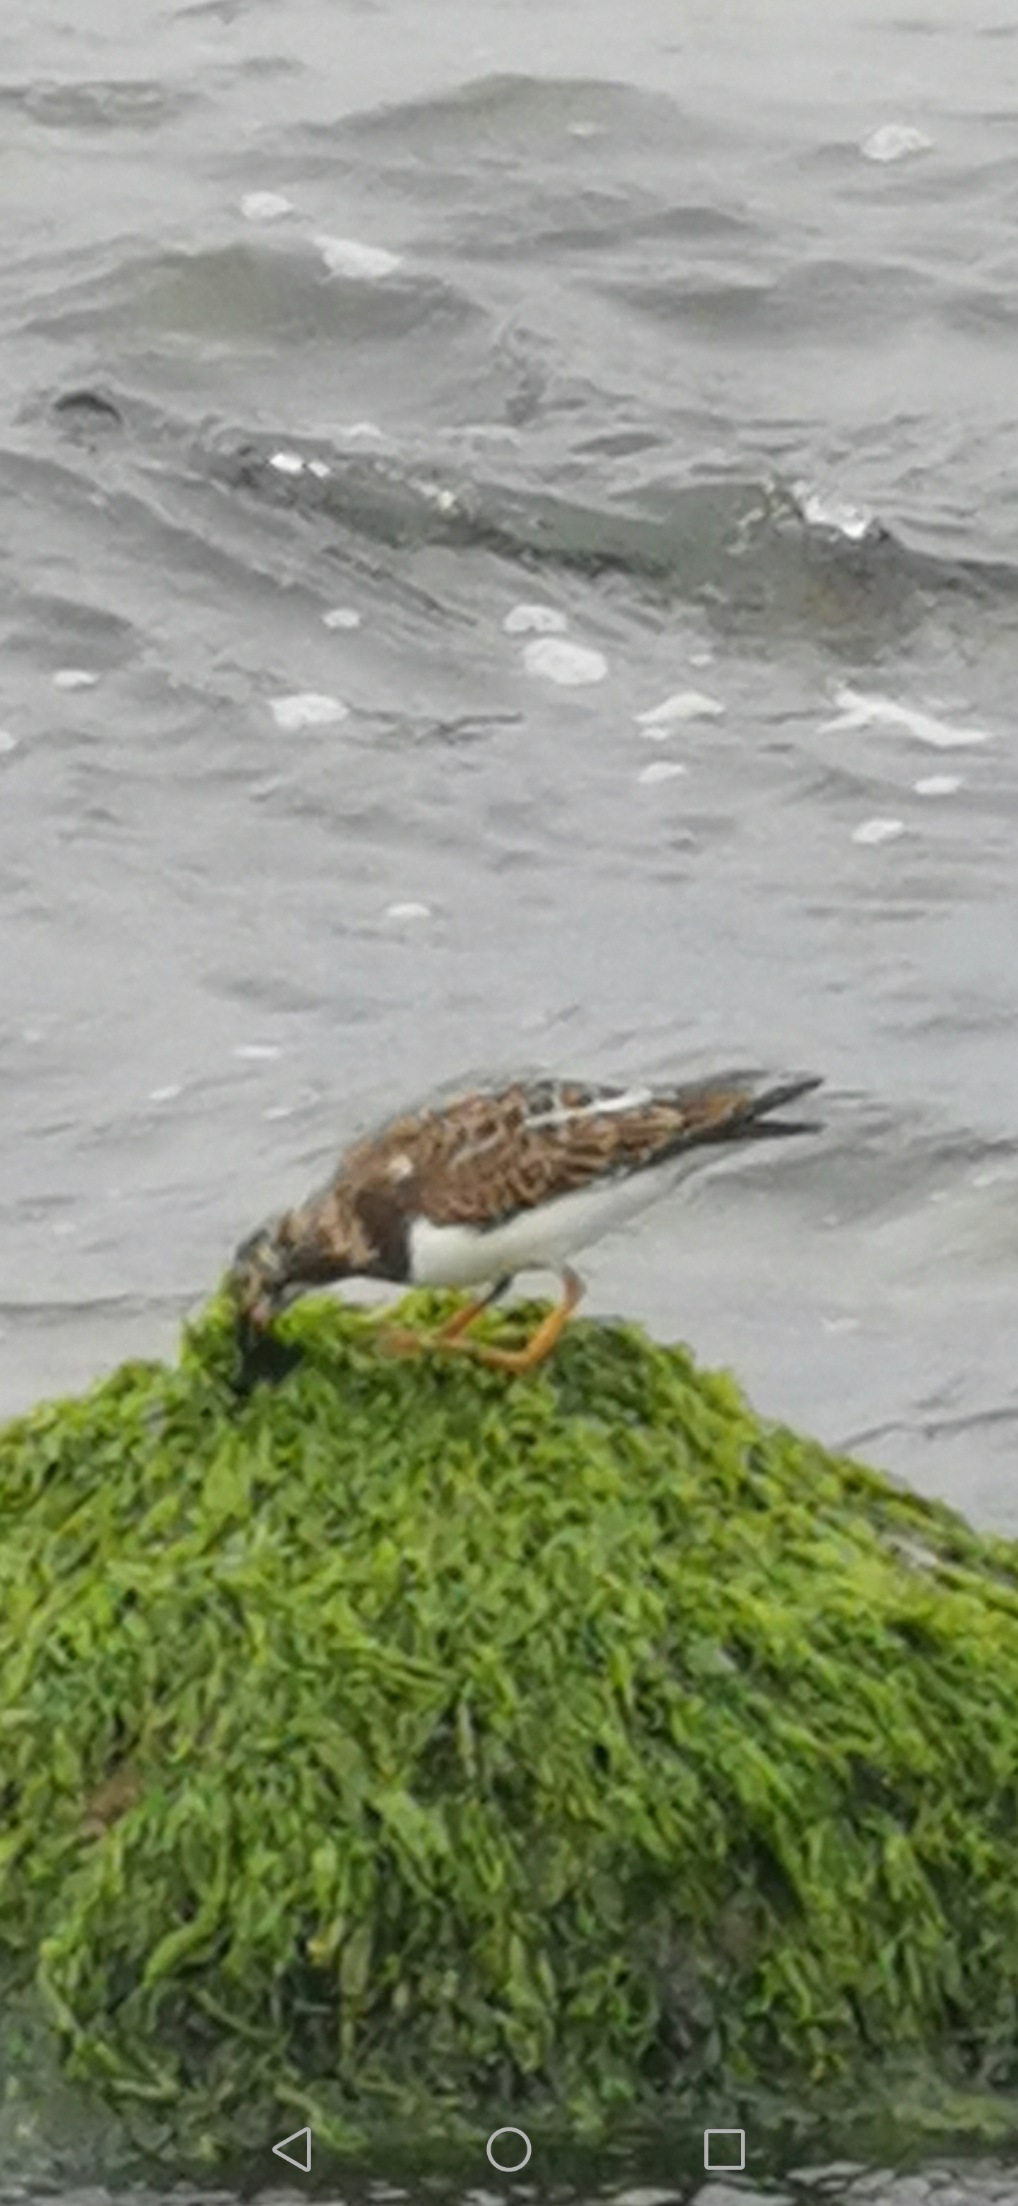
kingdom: Animalia
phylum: Chordata
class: Aves
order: Charadriiformes
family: Scolopacidae
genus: Arenaria
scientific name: Arenaria interpres
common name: Stenvender
